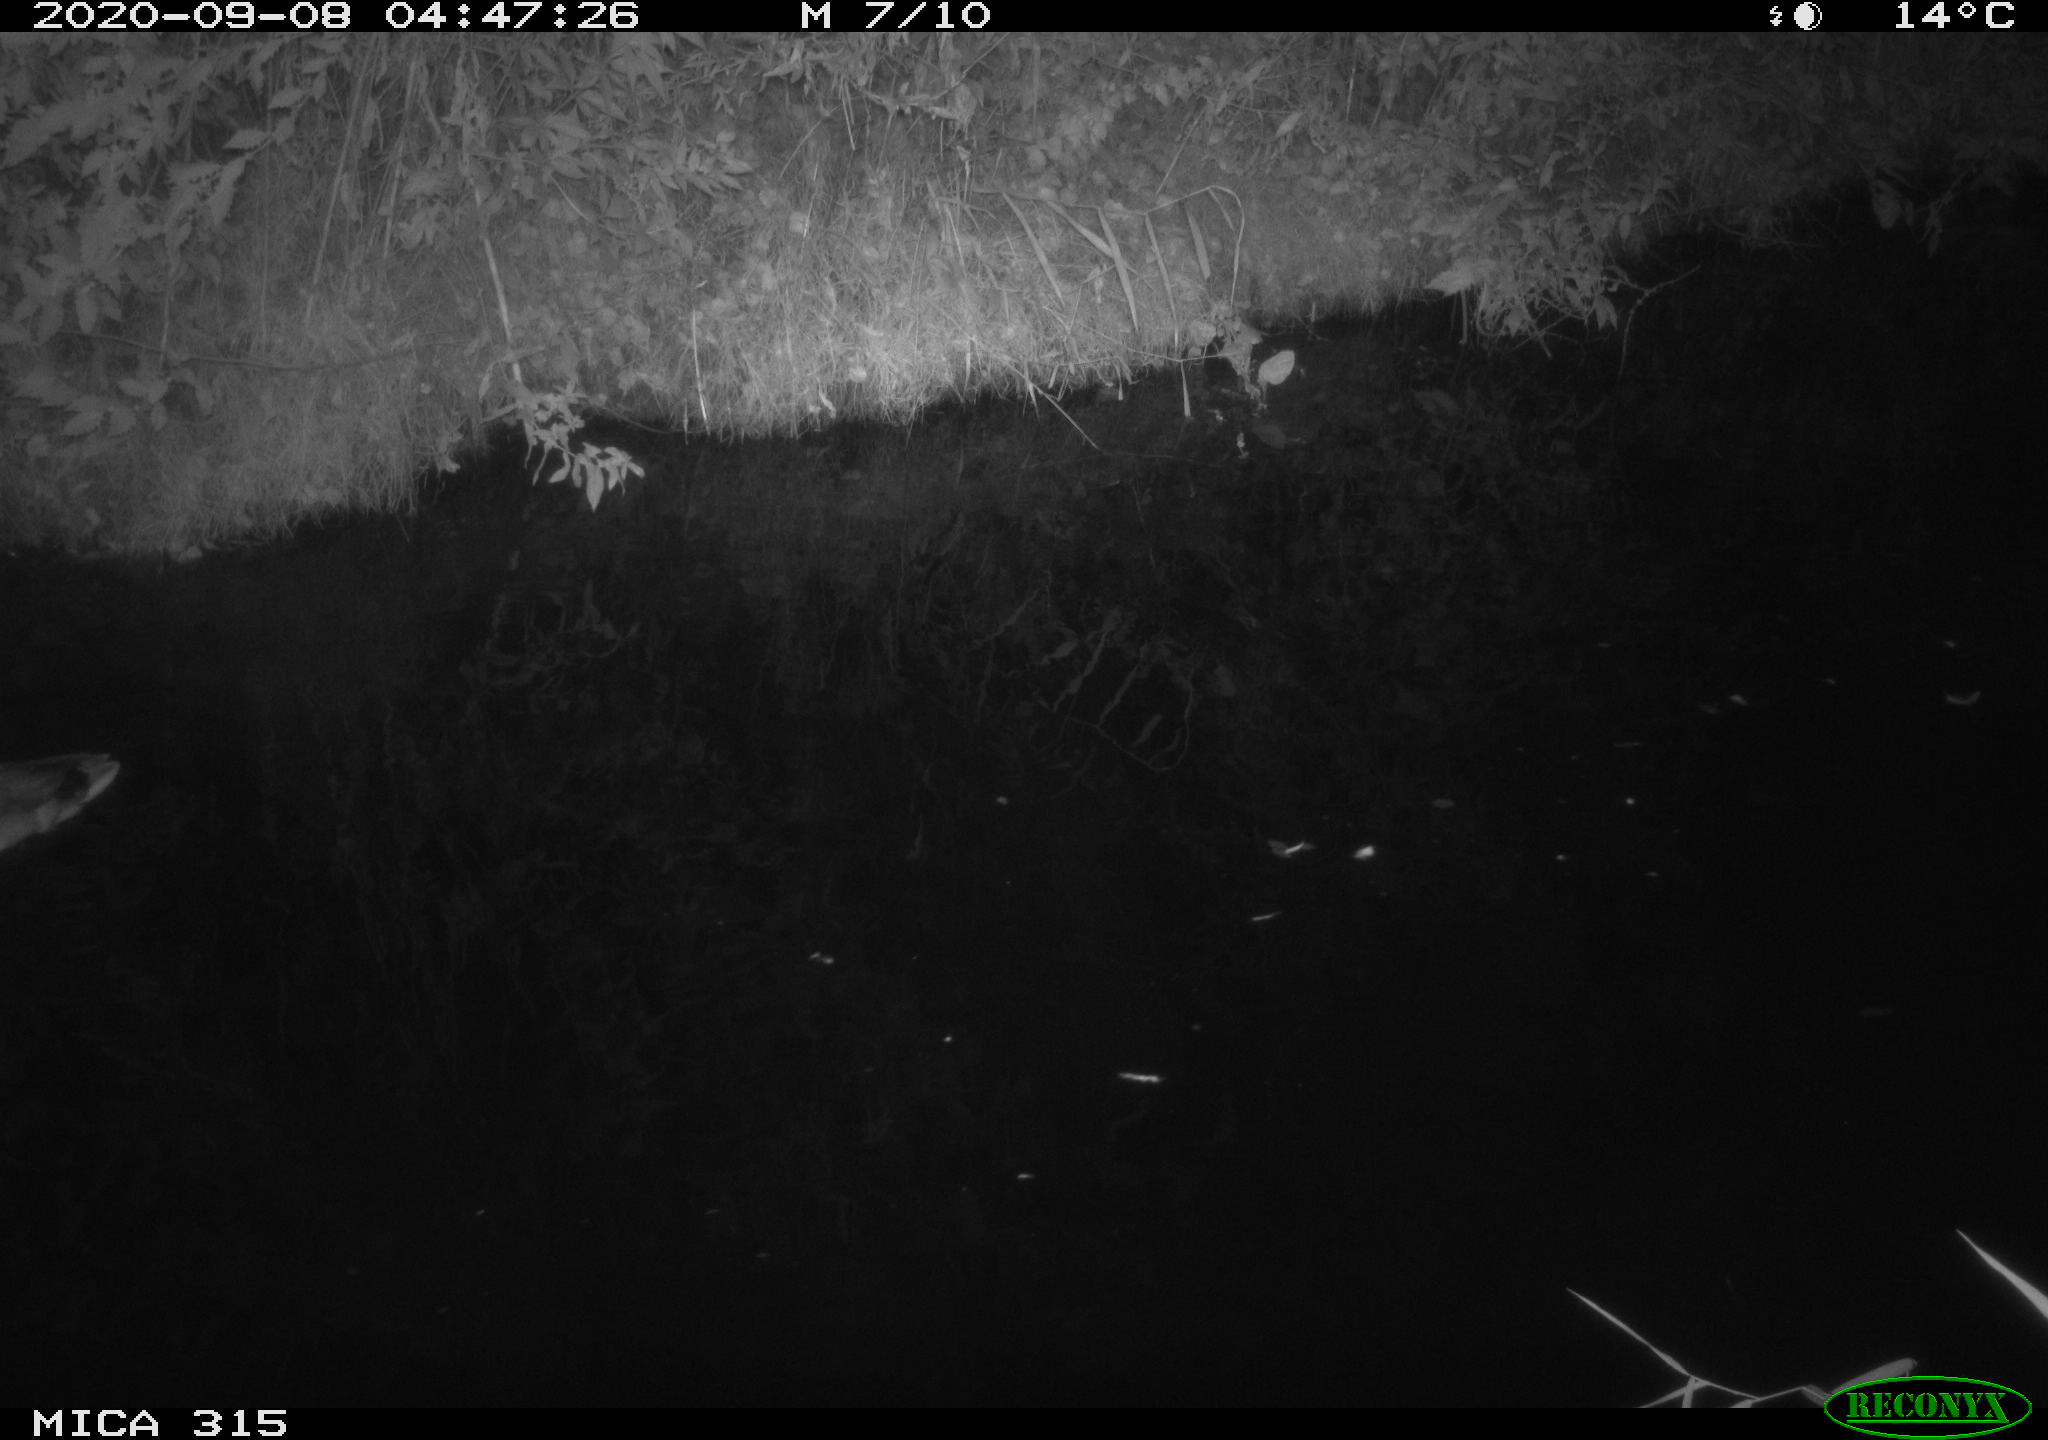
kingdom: Animalia
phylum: Chordata
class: Aves
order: Anseriformes
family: Anatidae
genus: Anas
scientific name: Anas platyrhynchos
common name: Mallard
